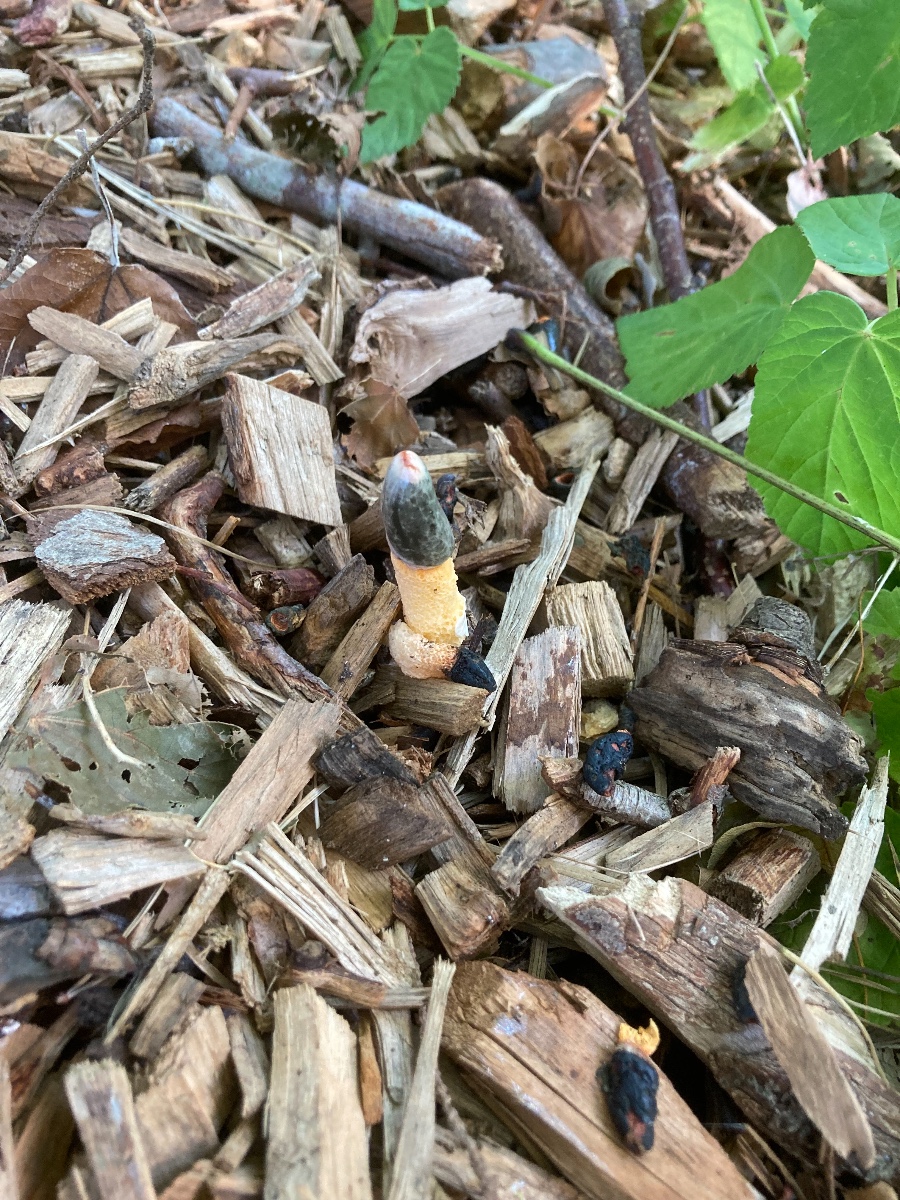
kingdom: Fungi
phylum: Basidiomycota
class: Agaricomycetes
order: Phallales
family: Phallaceae
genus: Mutinus
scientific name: Mutinus caninus
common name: hunde-stinksvamp
